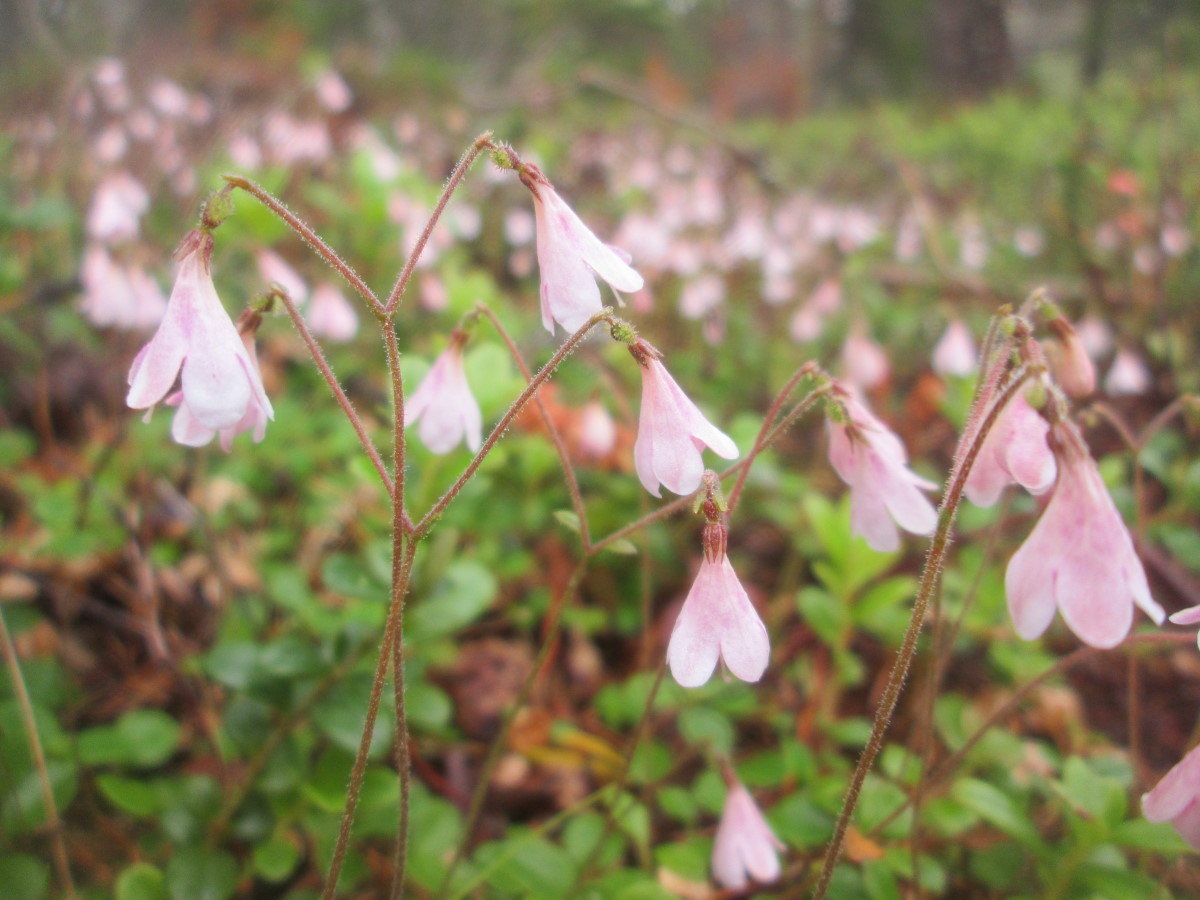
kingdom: Plantae
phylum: Tracheophyta
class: Magnoliopsida
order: Dipsacales
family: Caprifoliaceae
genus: Linnaea
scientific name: Linnaea borealis
